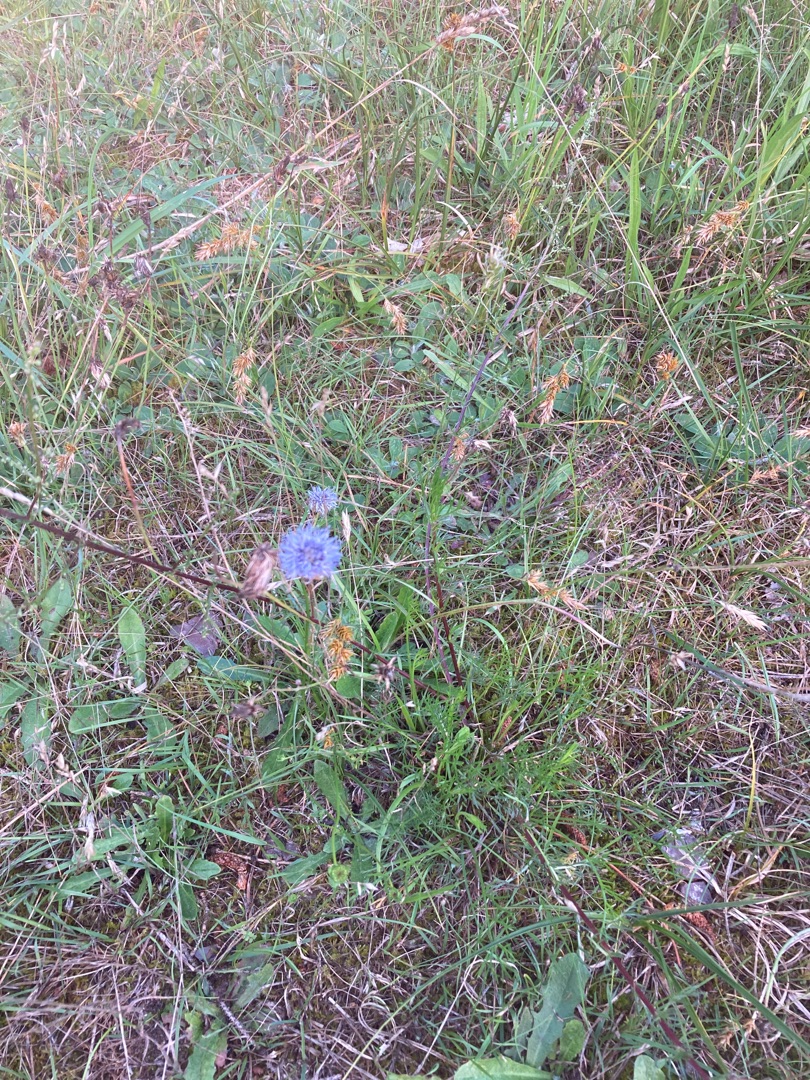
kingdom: Plantae
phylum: Tracheophyta
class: Magnoliopsida
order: Asterales
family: Campanulaceae
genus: Jasione
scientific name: Jasione montana
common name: Blåmunke
